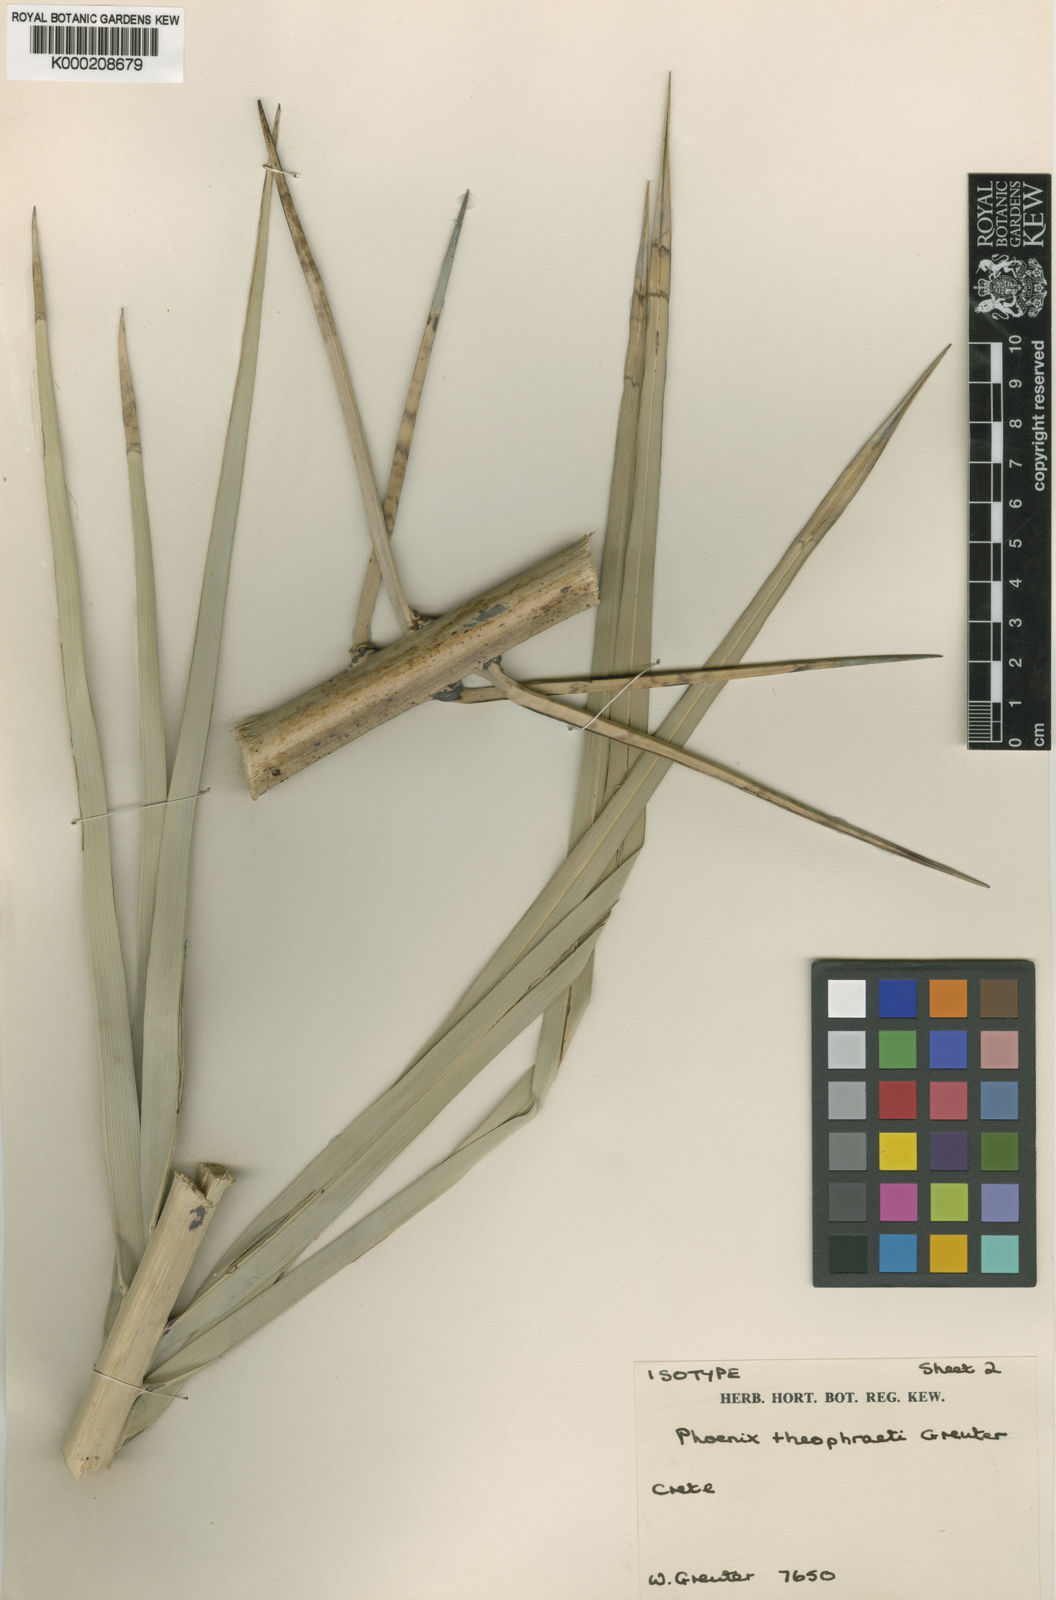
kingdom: Plantae
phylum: Tracheophyta
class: Liliopsida
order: Arecales
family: Arecaceae
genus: Phoenix
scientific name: Phoenix theophrasti
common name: Cretan date palm
